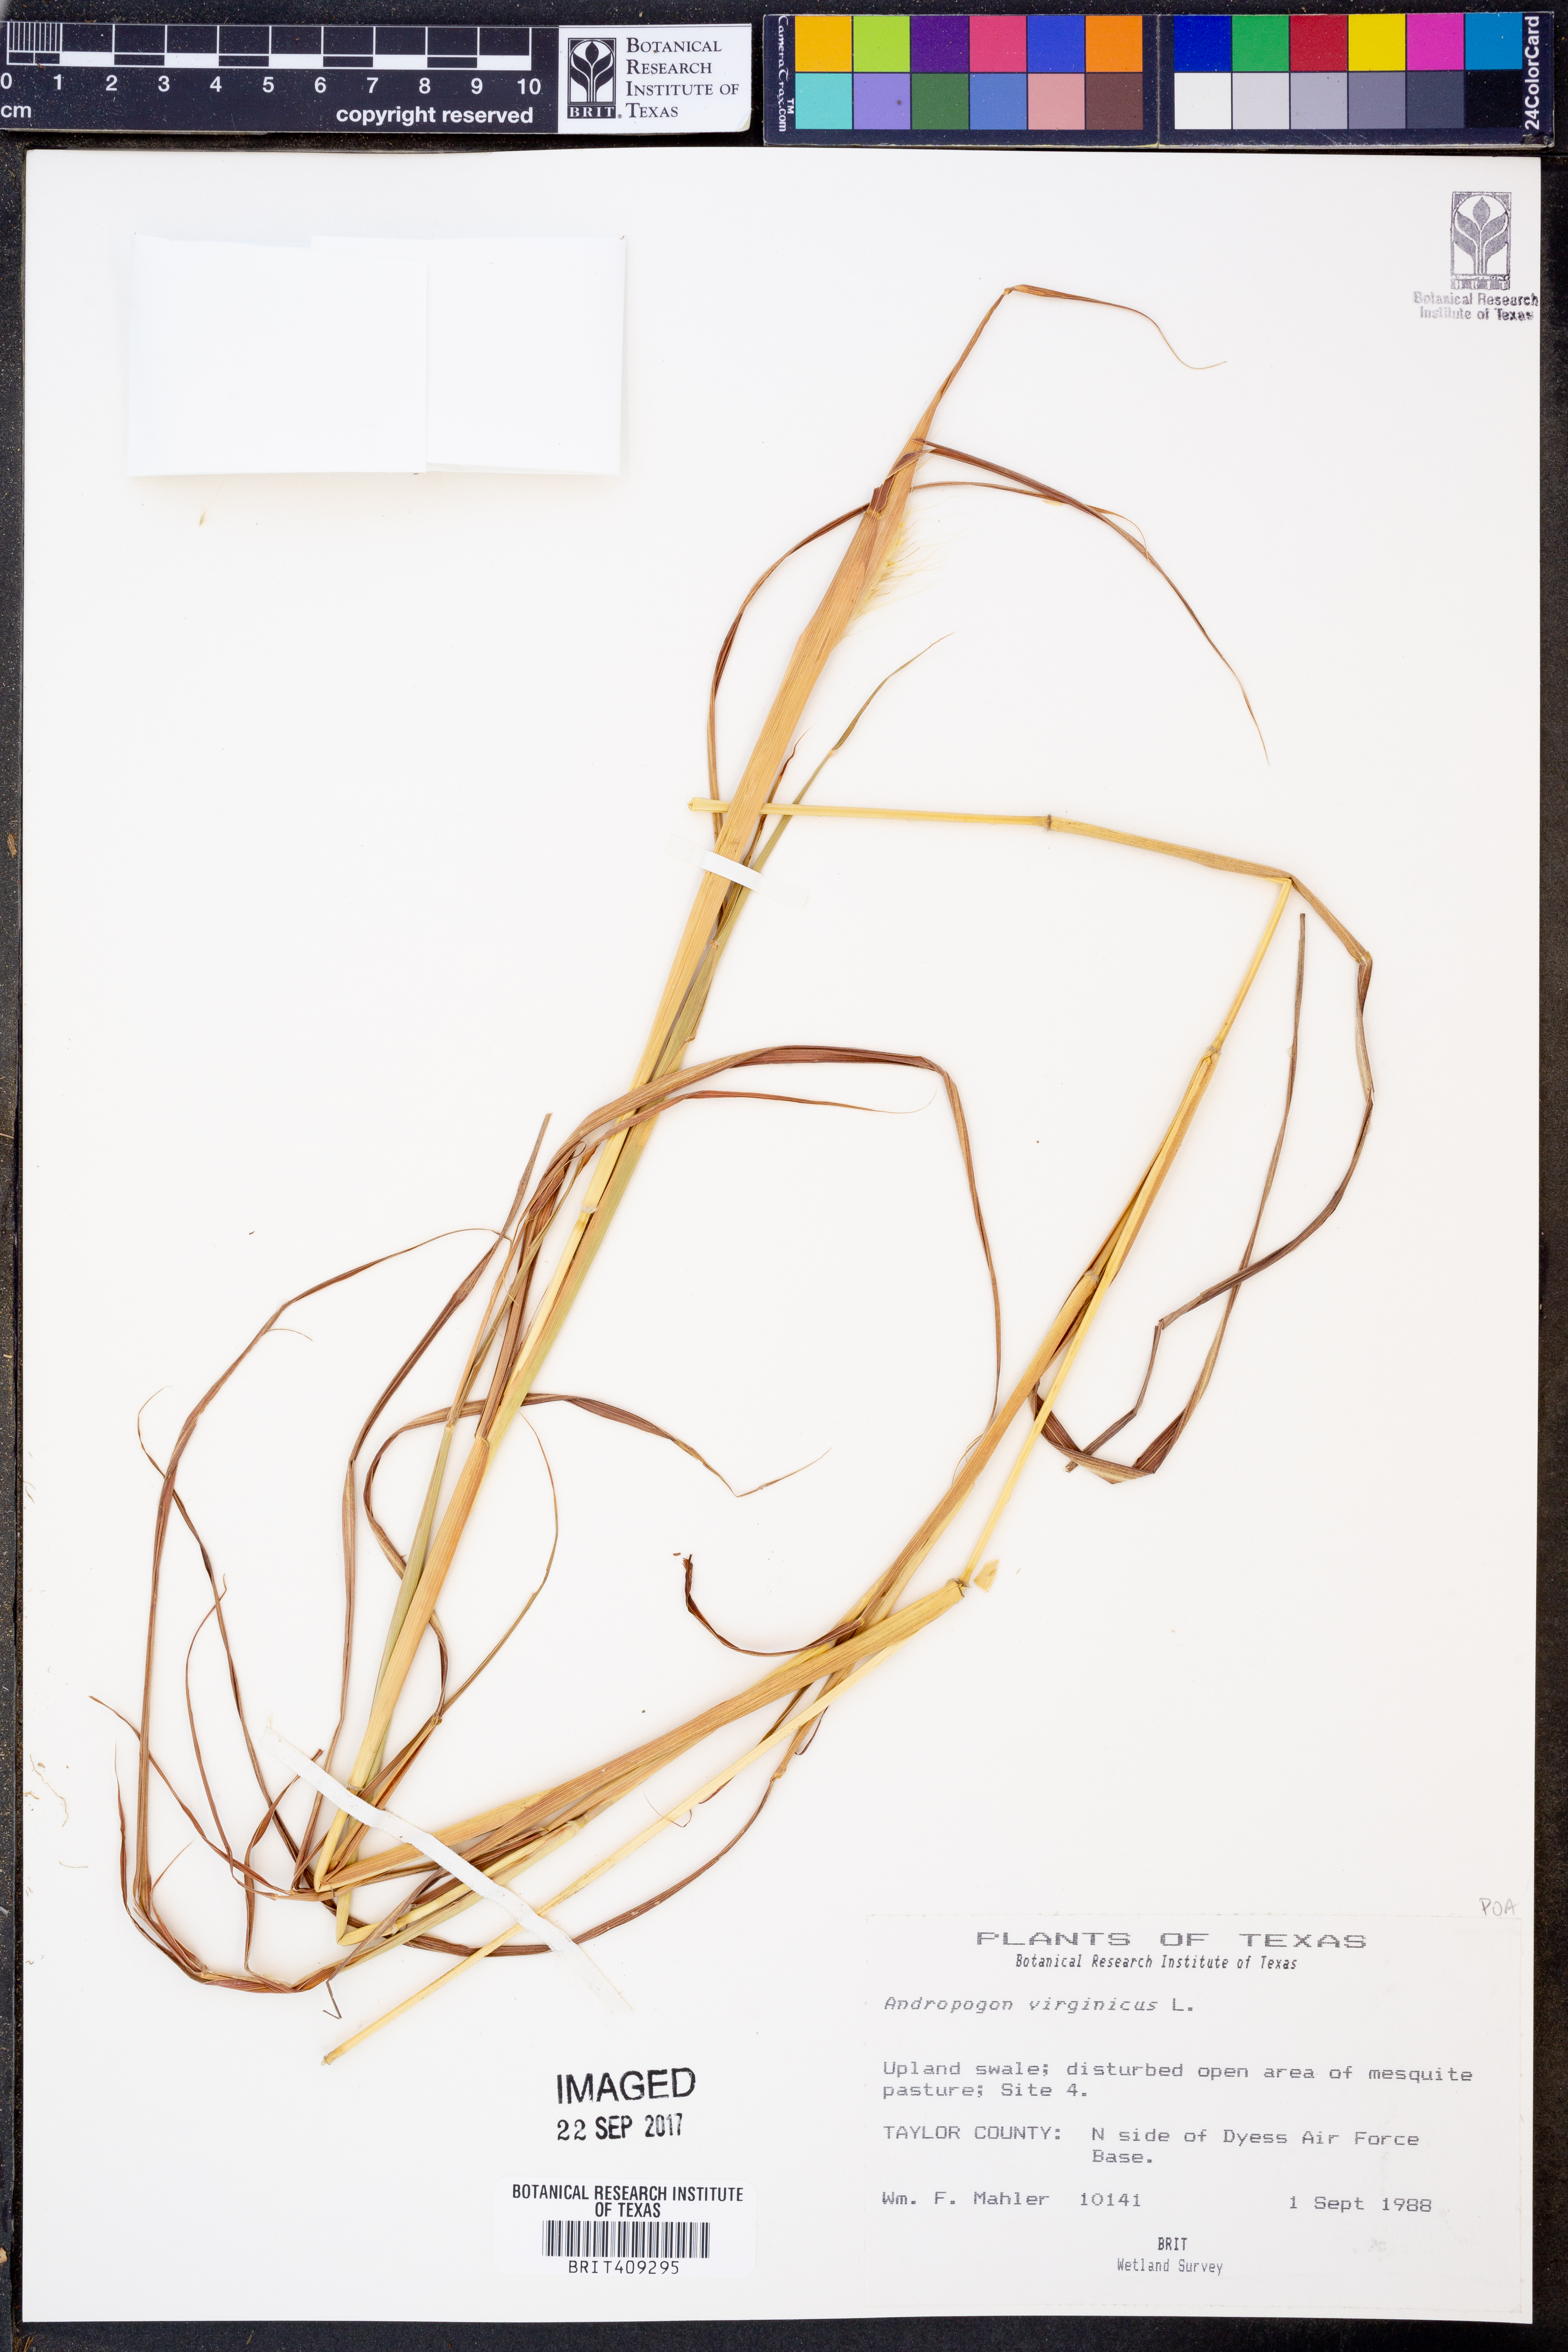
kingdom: Plantae
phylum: Tracheophyta
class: Liliopsida
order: Poales
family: Poaceae
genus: Andropogon
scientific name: Andropogon virginicus
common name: Broomsedge bluestem
